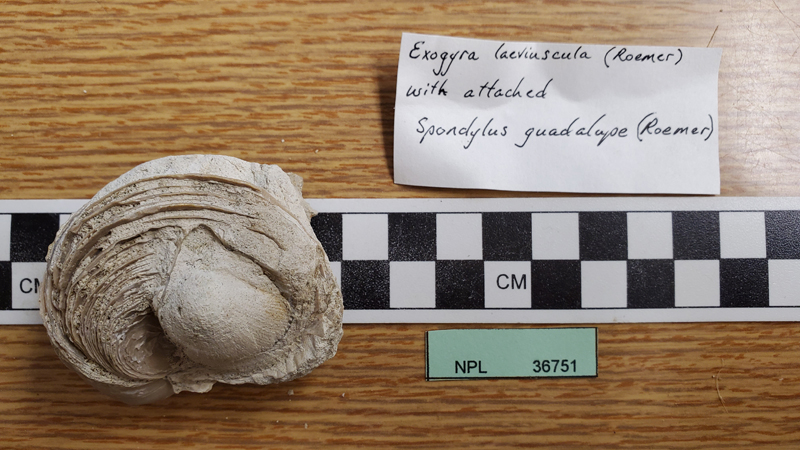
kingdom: Animalia
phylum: Mollusca
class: Bivalvia
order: Ostreida
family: Gryphaeidae
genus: Exogyra
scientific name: Exogyra
